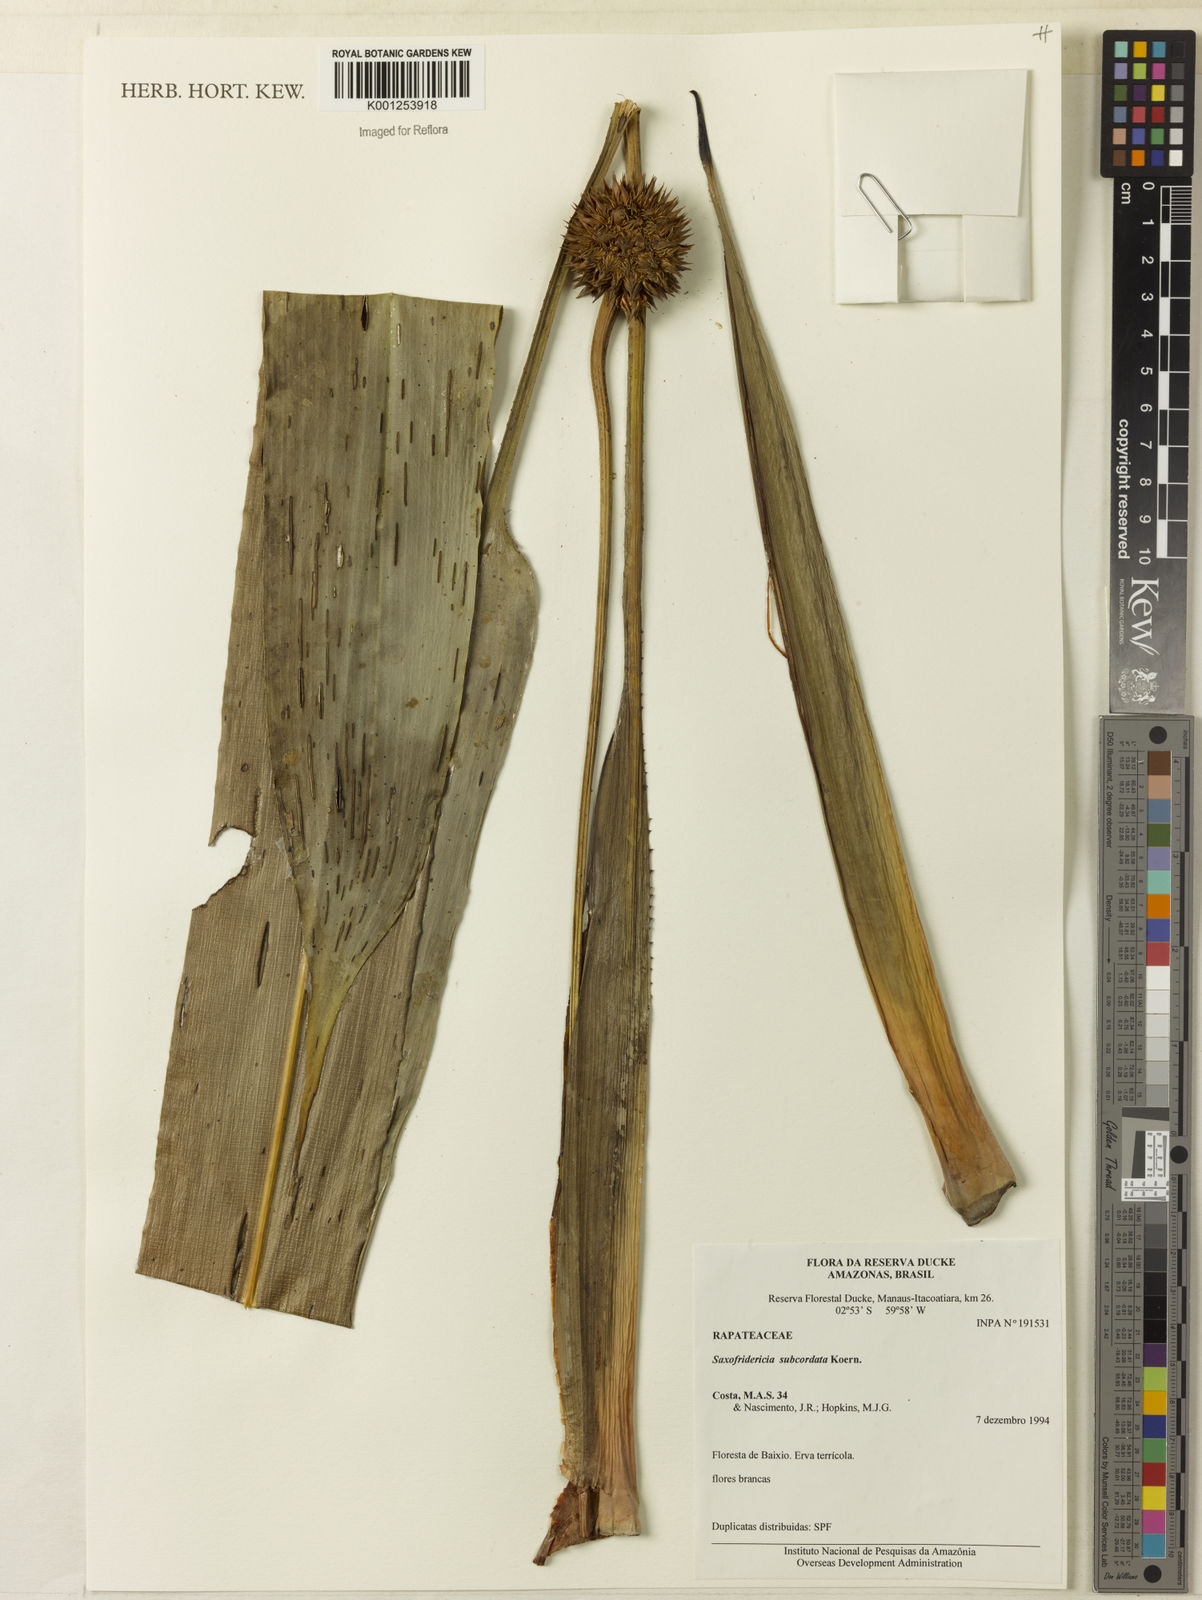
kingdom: Plantae
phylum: Tracheophyta
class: Liliopsida
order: Poales
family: Rapateaceae
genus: Saxofridericia
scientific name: Saxofridericia aculeata
